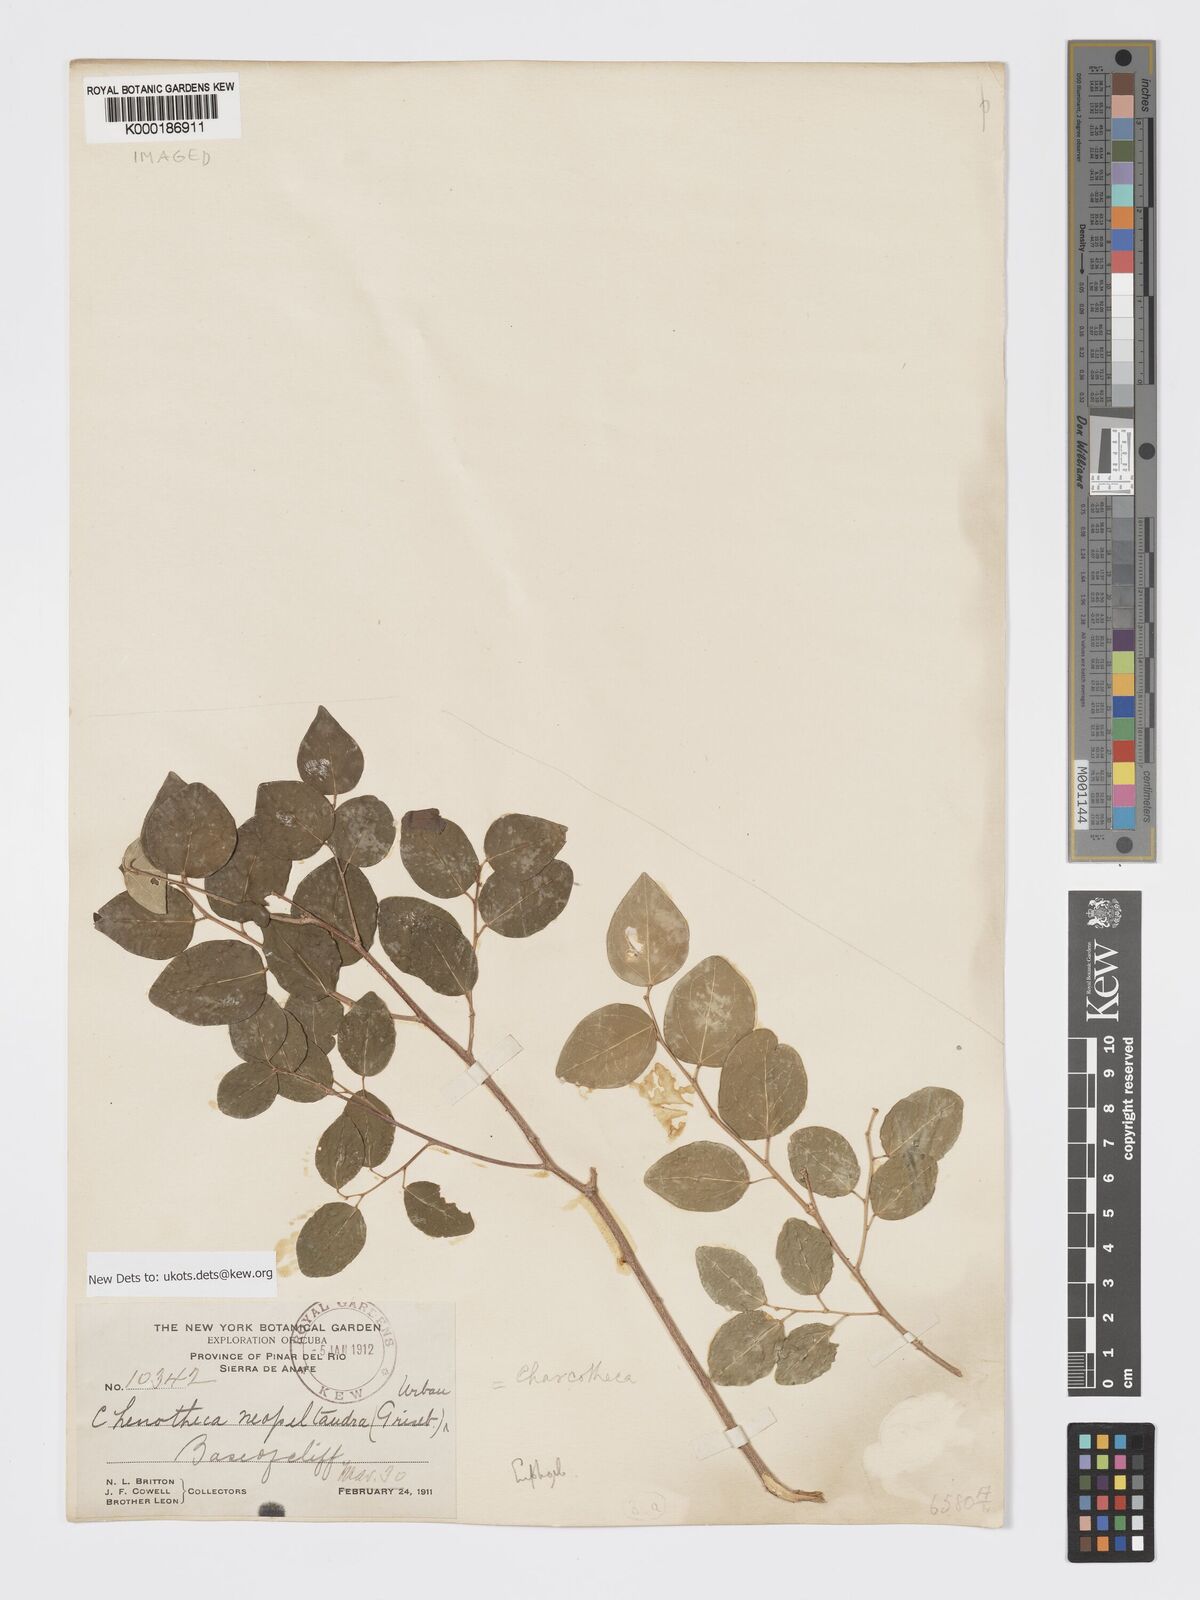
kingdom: Plantae
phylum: Tracheophyta
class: Magnoliopsida
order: Malpighiales
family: Phyllanthaceae
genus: Chascotheca
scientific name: Chascotheca neopeltandra
